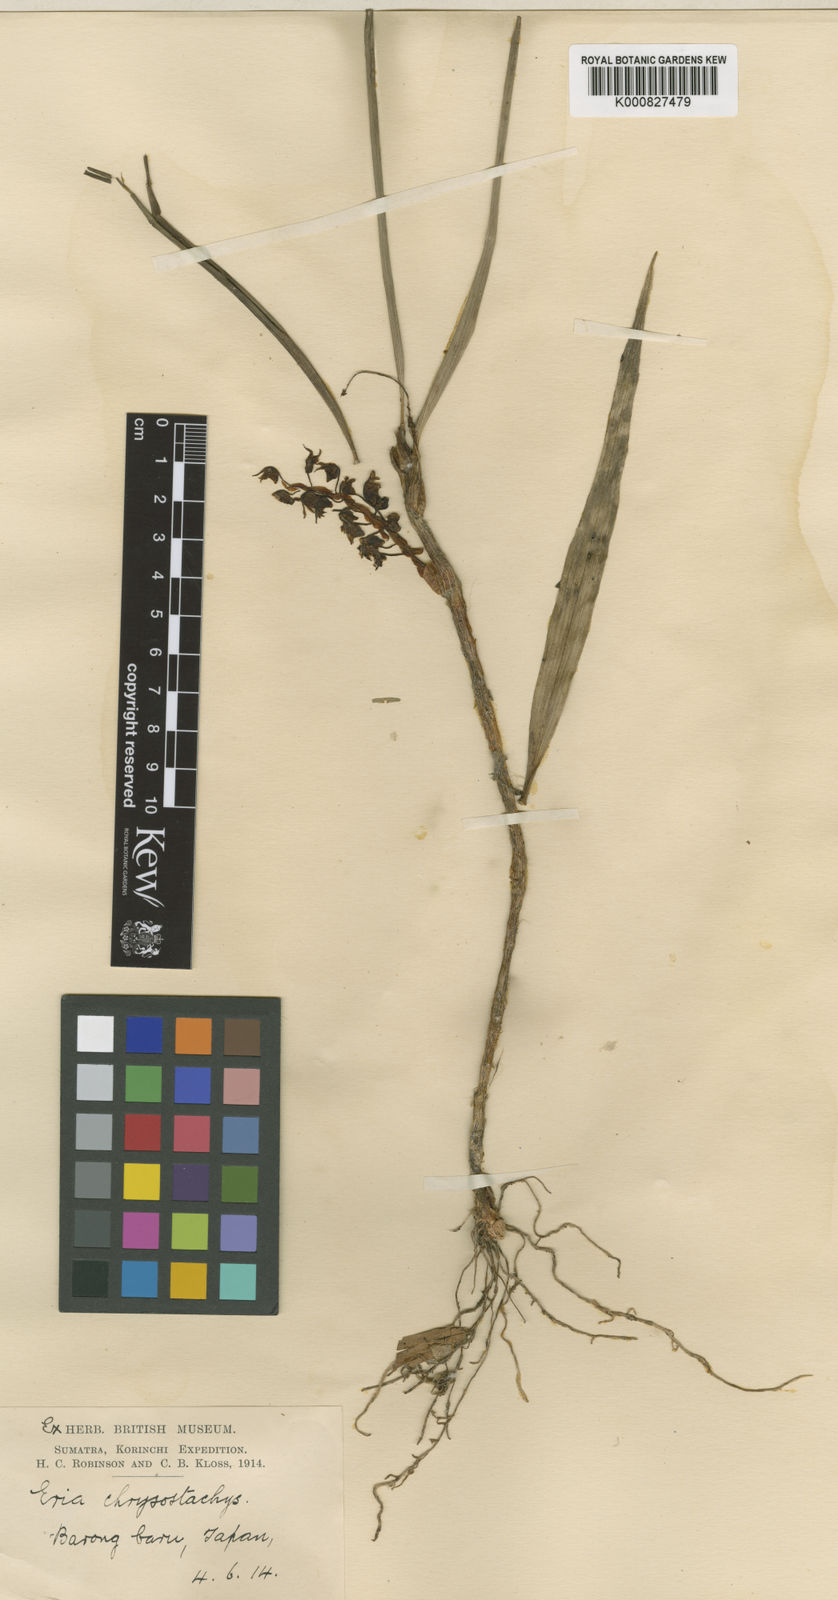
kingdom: Plantae
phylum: Tracheophyta
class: Liliopsida
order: Asparagales
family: Orchidaceae
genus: Pinalia
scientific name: Pinalia merapiensis
